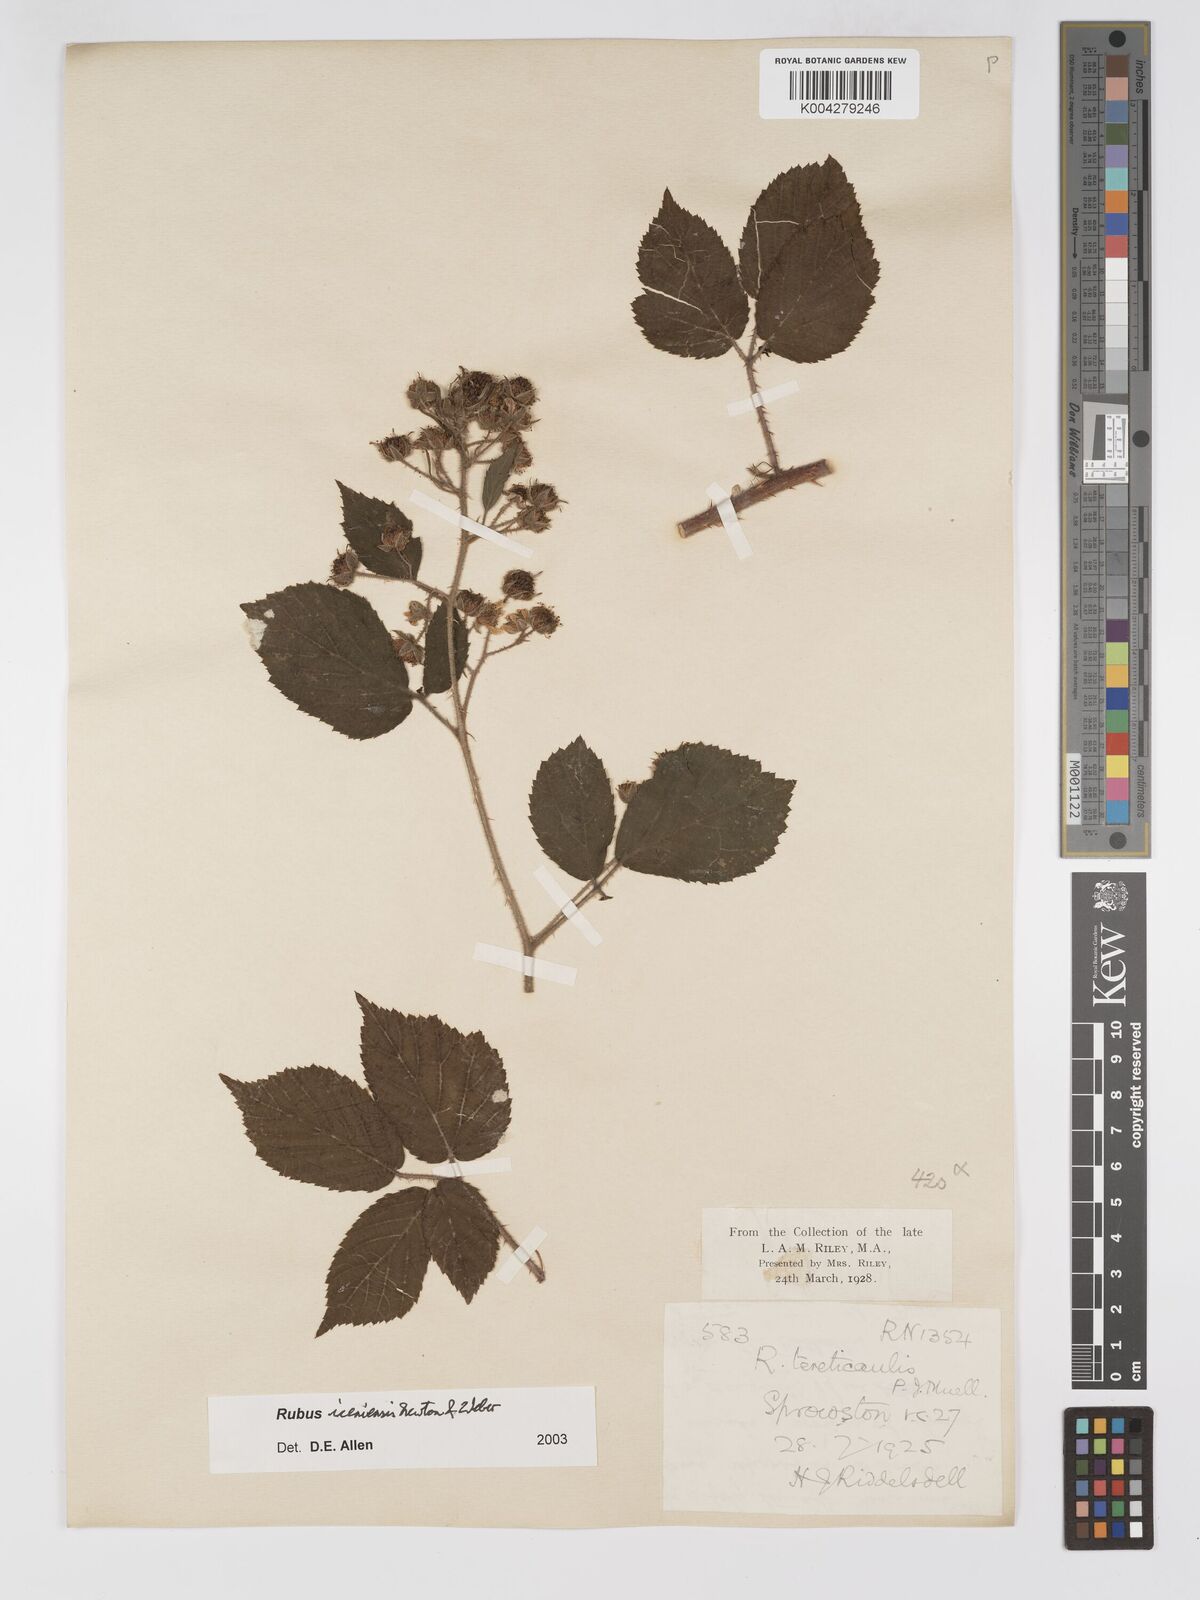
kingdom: Plantae
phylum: Tracheophyta
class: Magnoliopsida
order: Rosales
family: Rosaceae
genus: Rubus
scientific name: Rubus iceniensis
